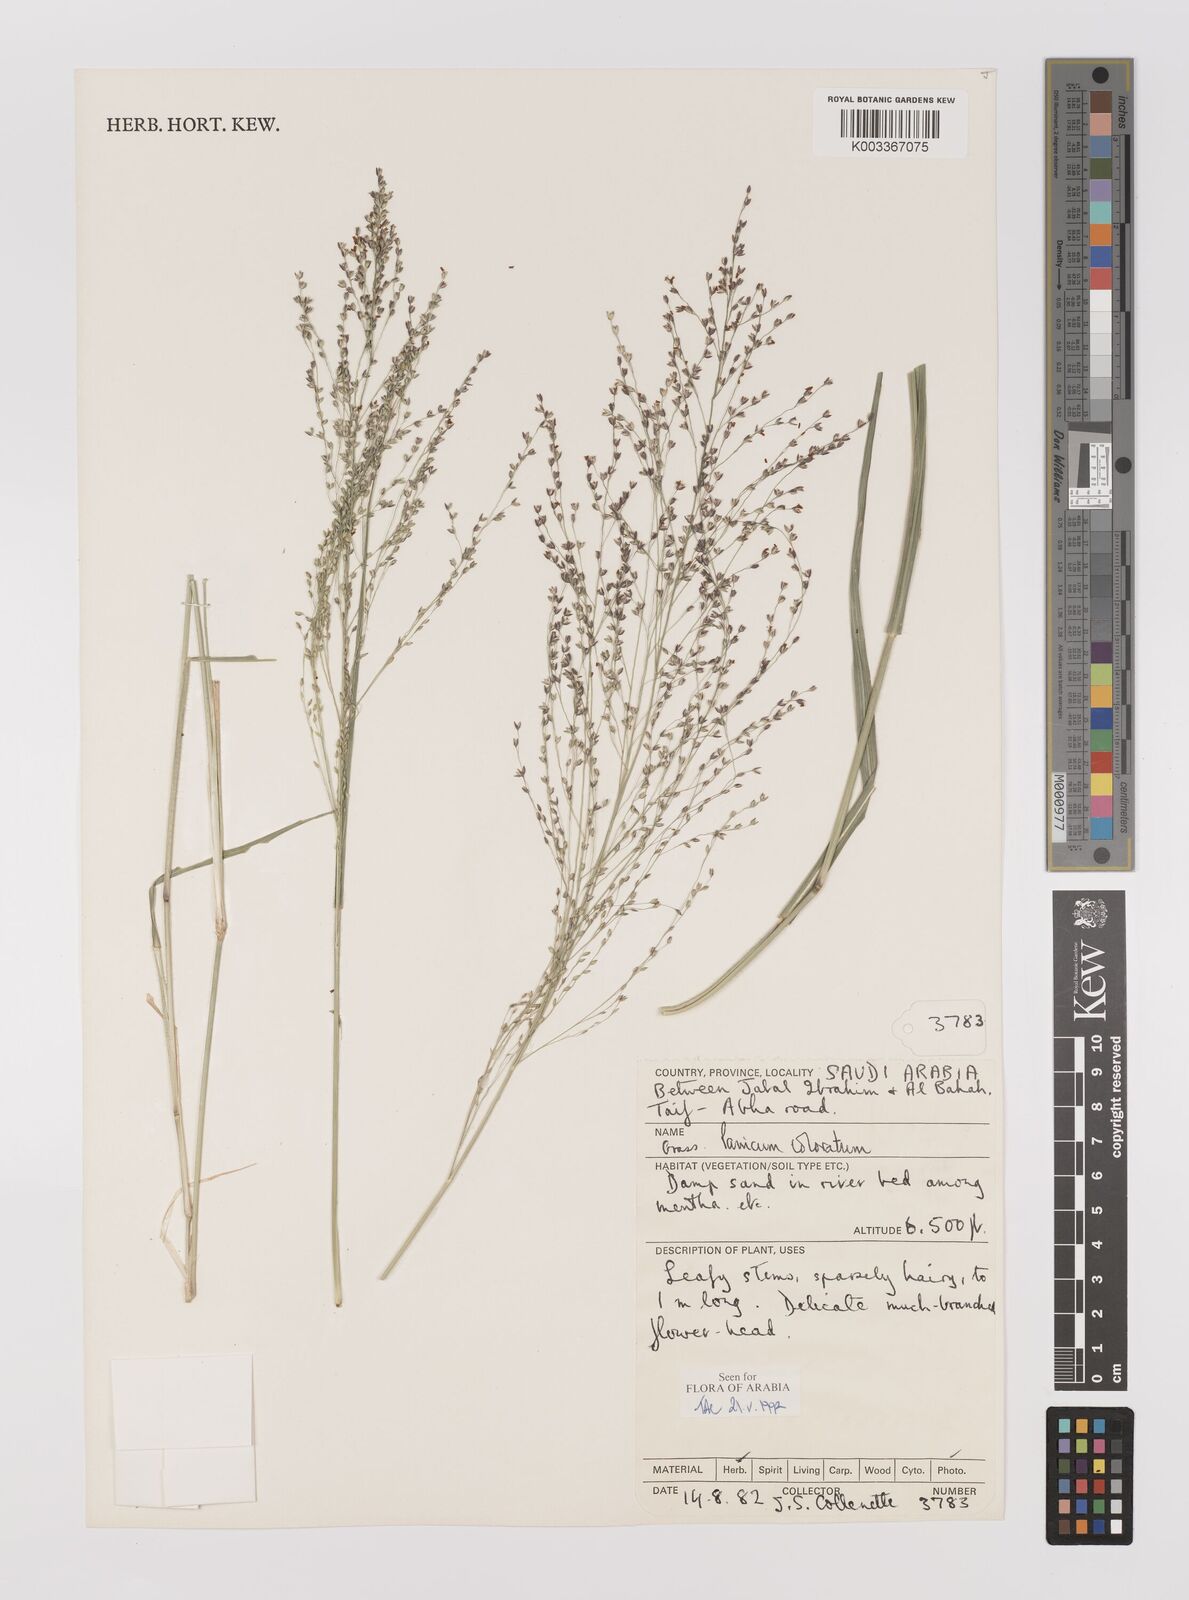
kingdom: Plantae
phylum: Tracheophyta
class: Liliopsida
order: Poales
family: Poaceae
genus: Panicum
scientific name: Panicum coloratum
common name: Kleingrass
